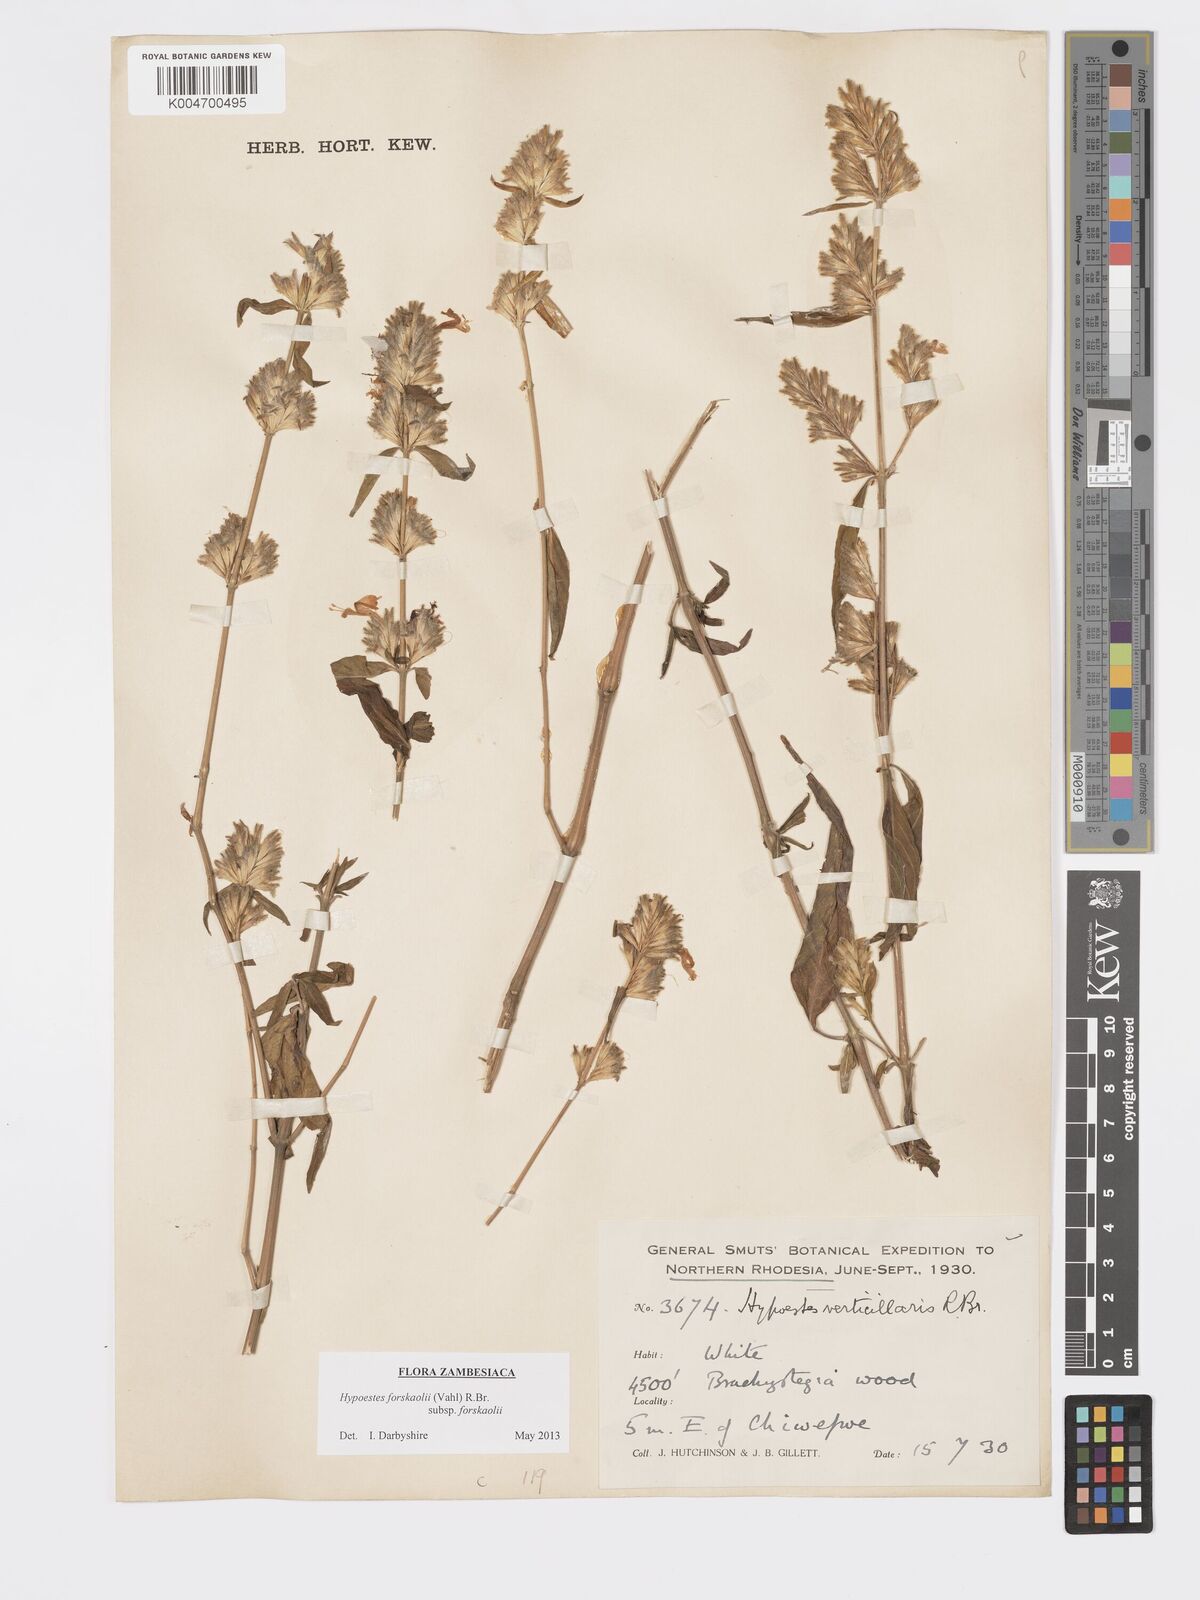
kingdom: Plantae
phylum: Tracheophyta
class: Magnoliopsida
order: Lamiales
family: Acanthaceae
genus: Hypoestes
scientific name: Hypoestes forskaolii
